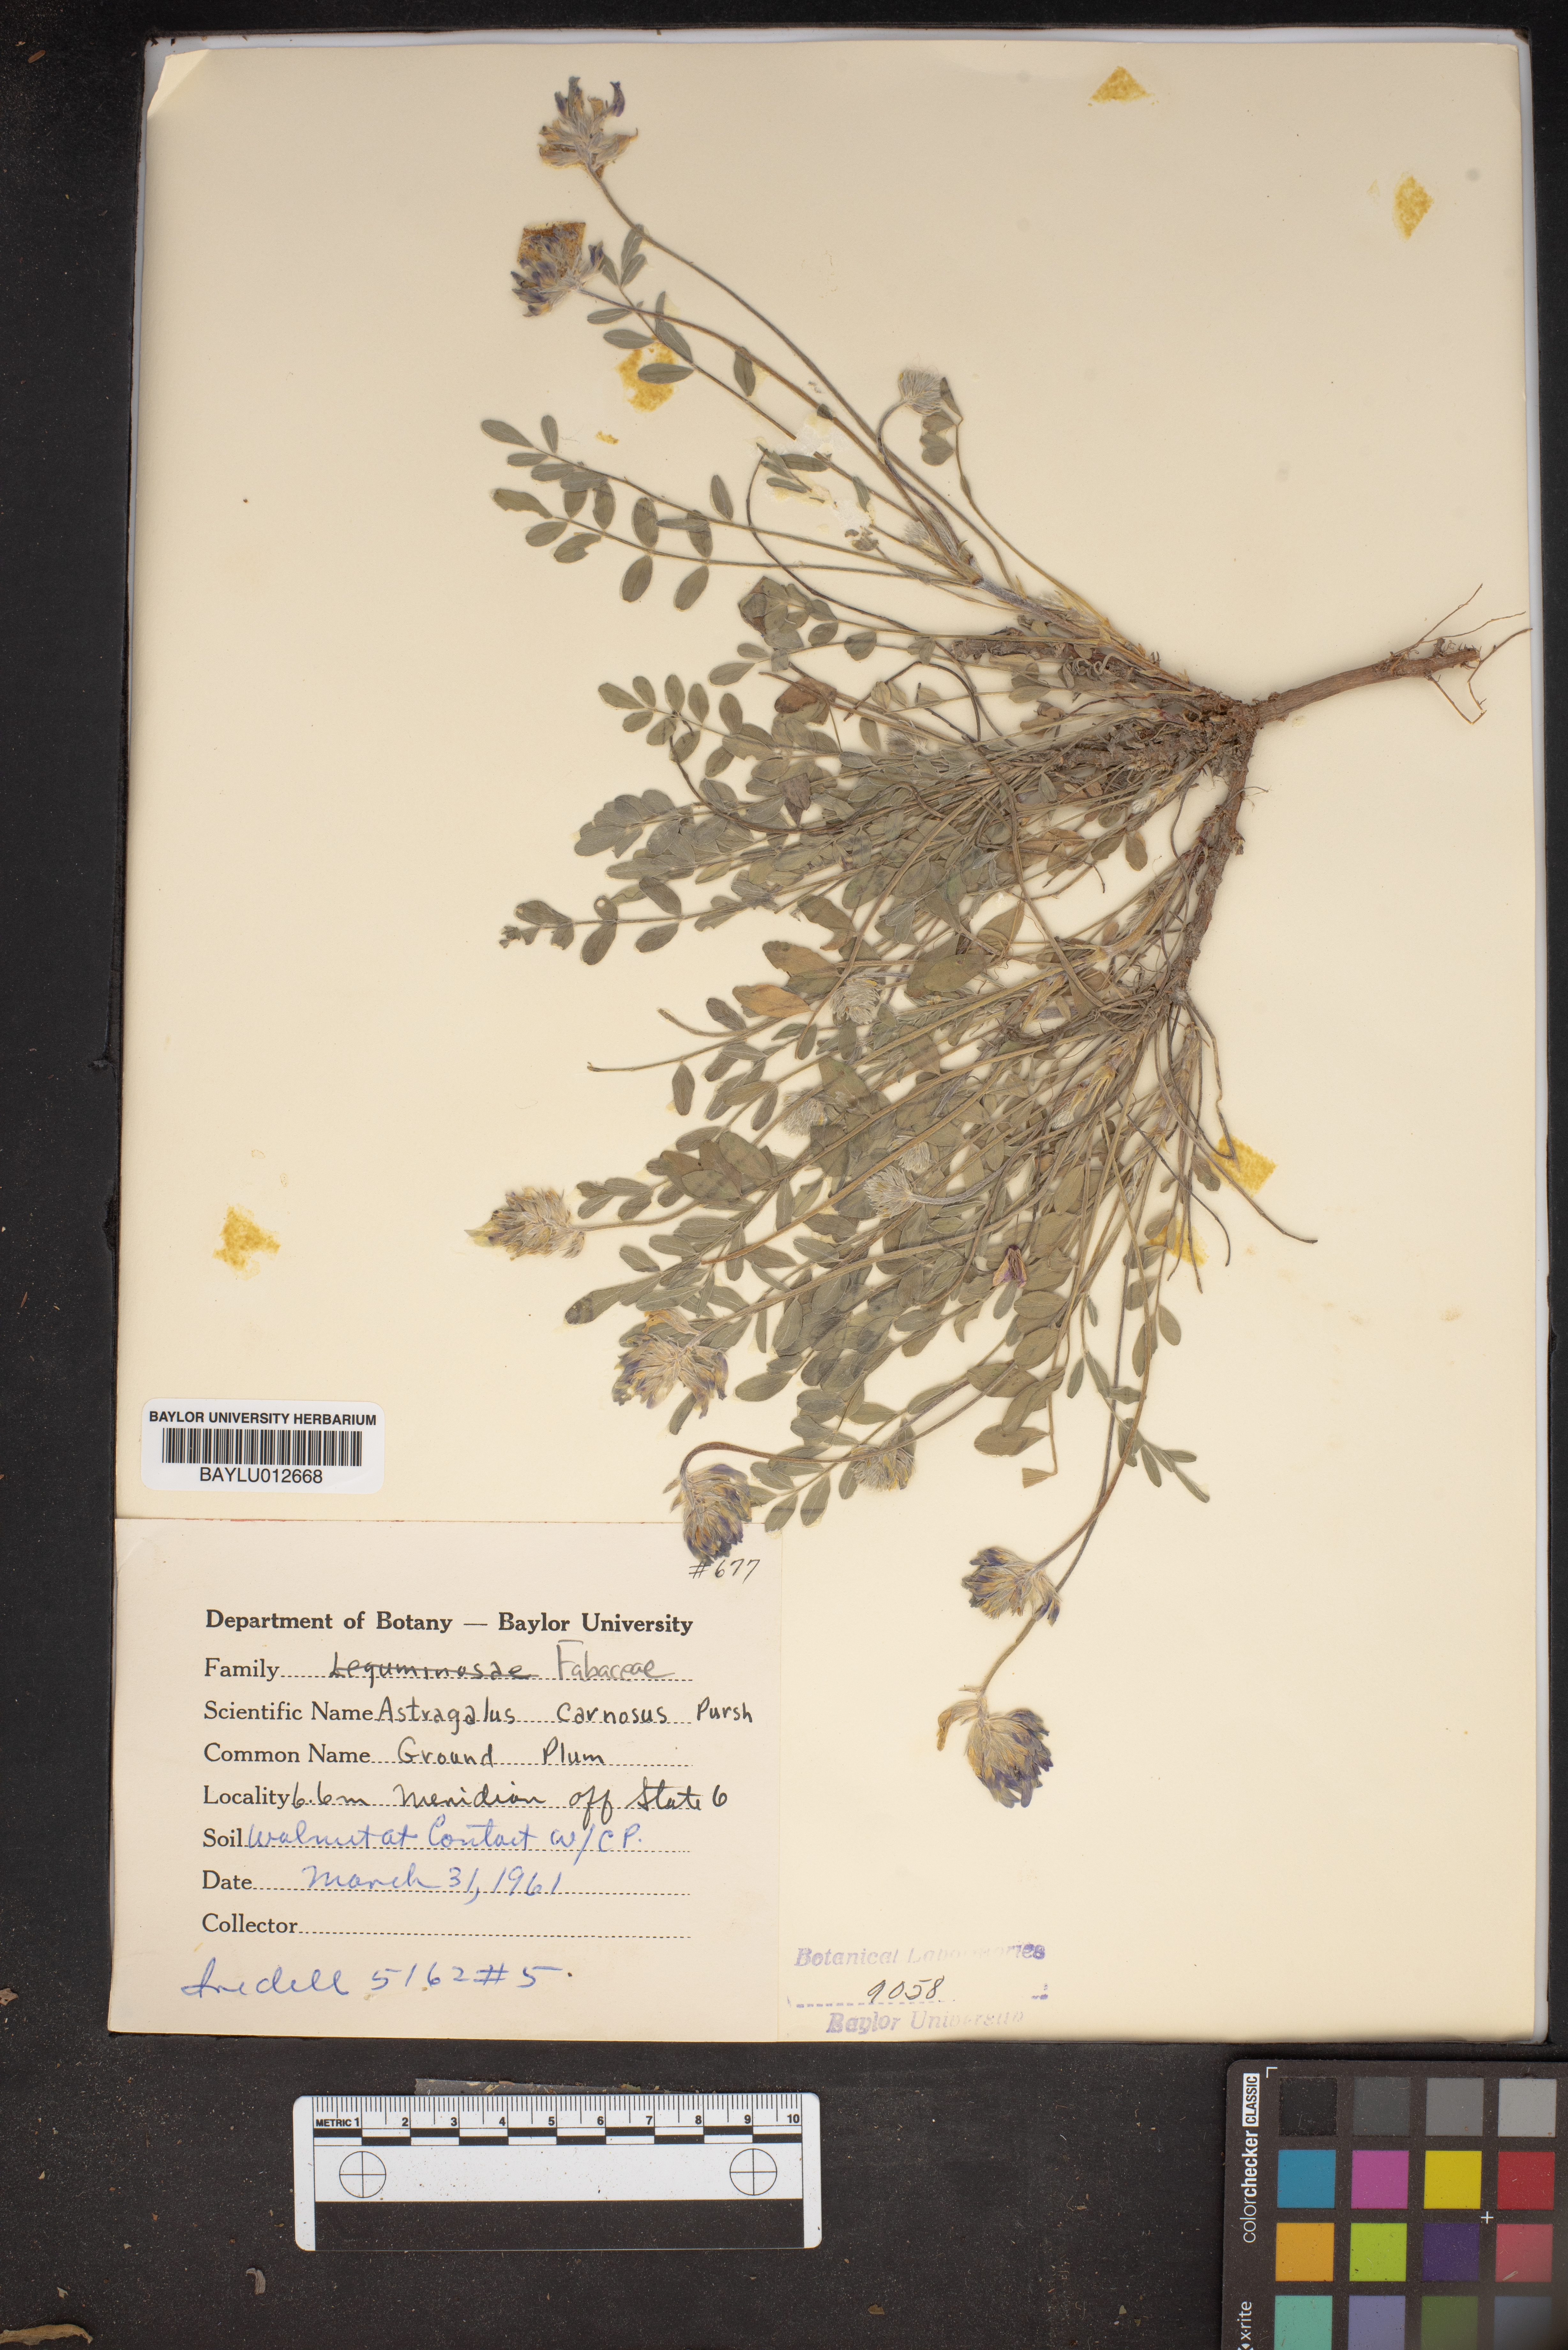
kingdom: Plantae
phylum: Tracheophyta
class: Magnoliopsida
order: Fabales
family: Fabaceae
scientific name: Fabaceae
